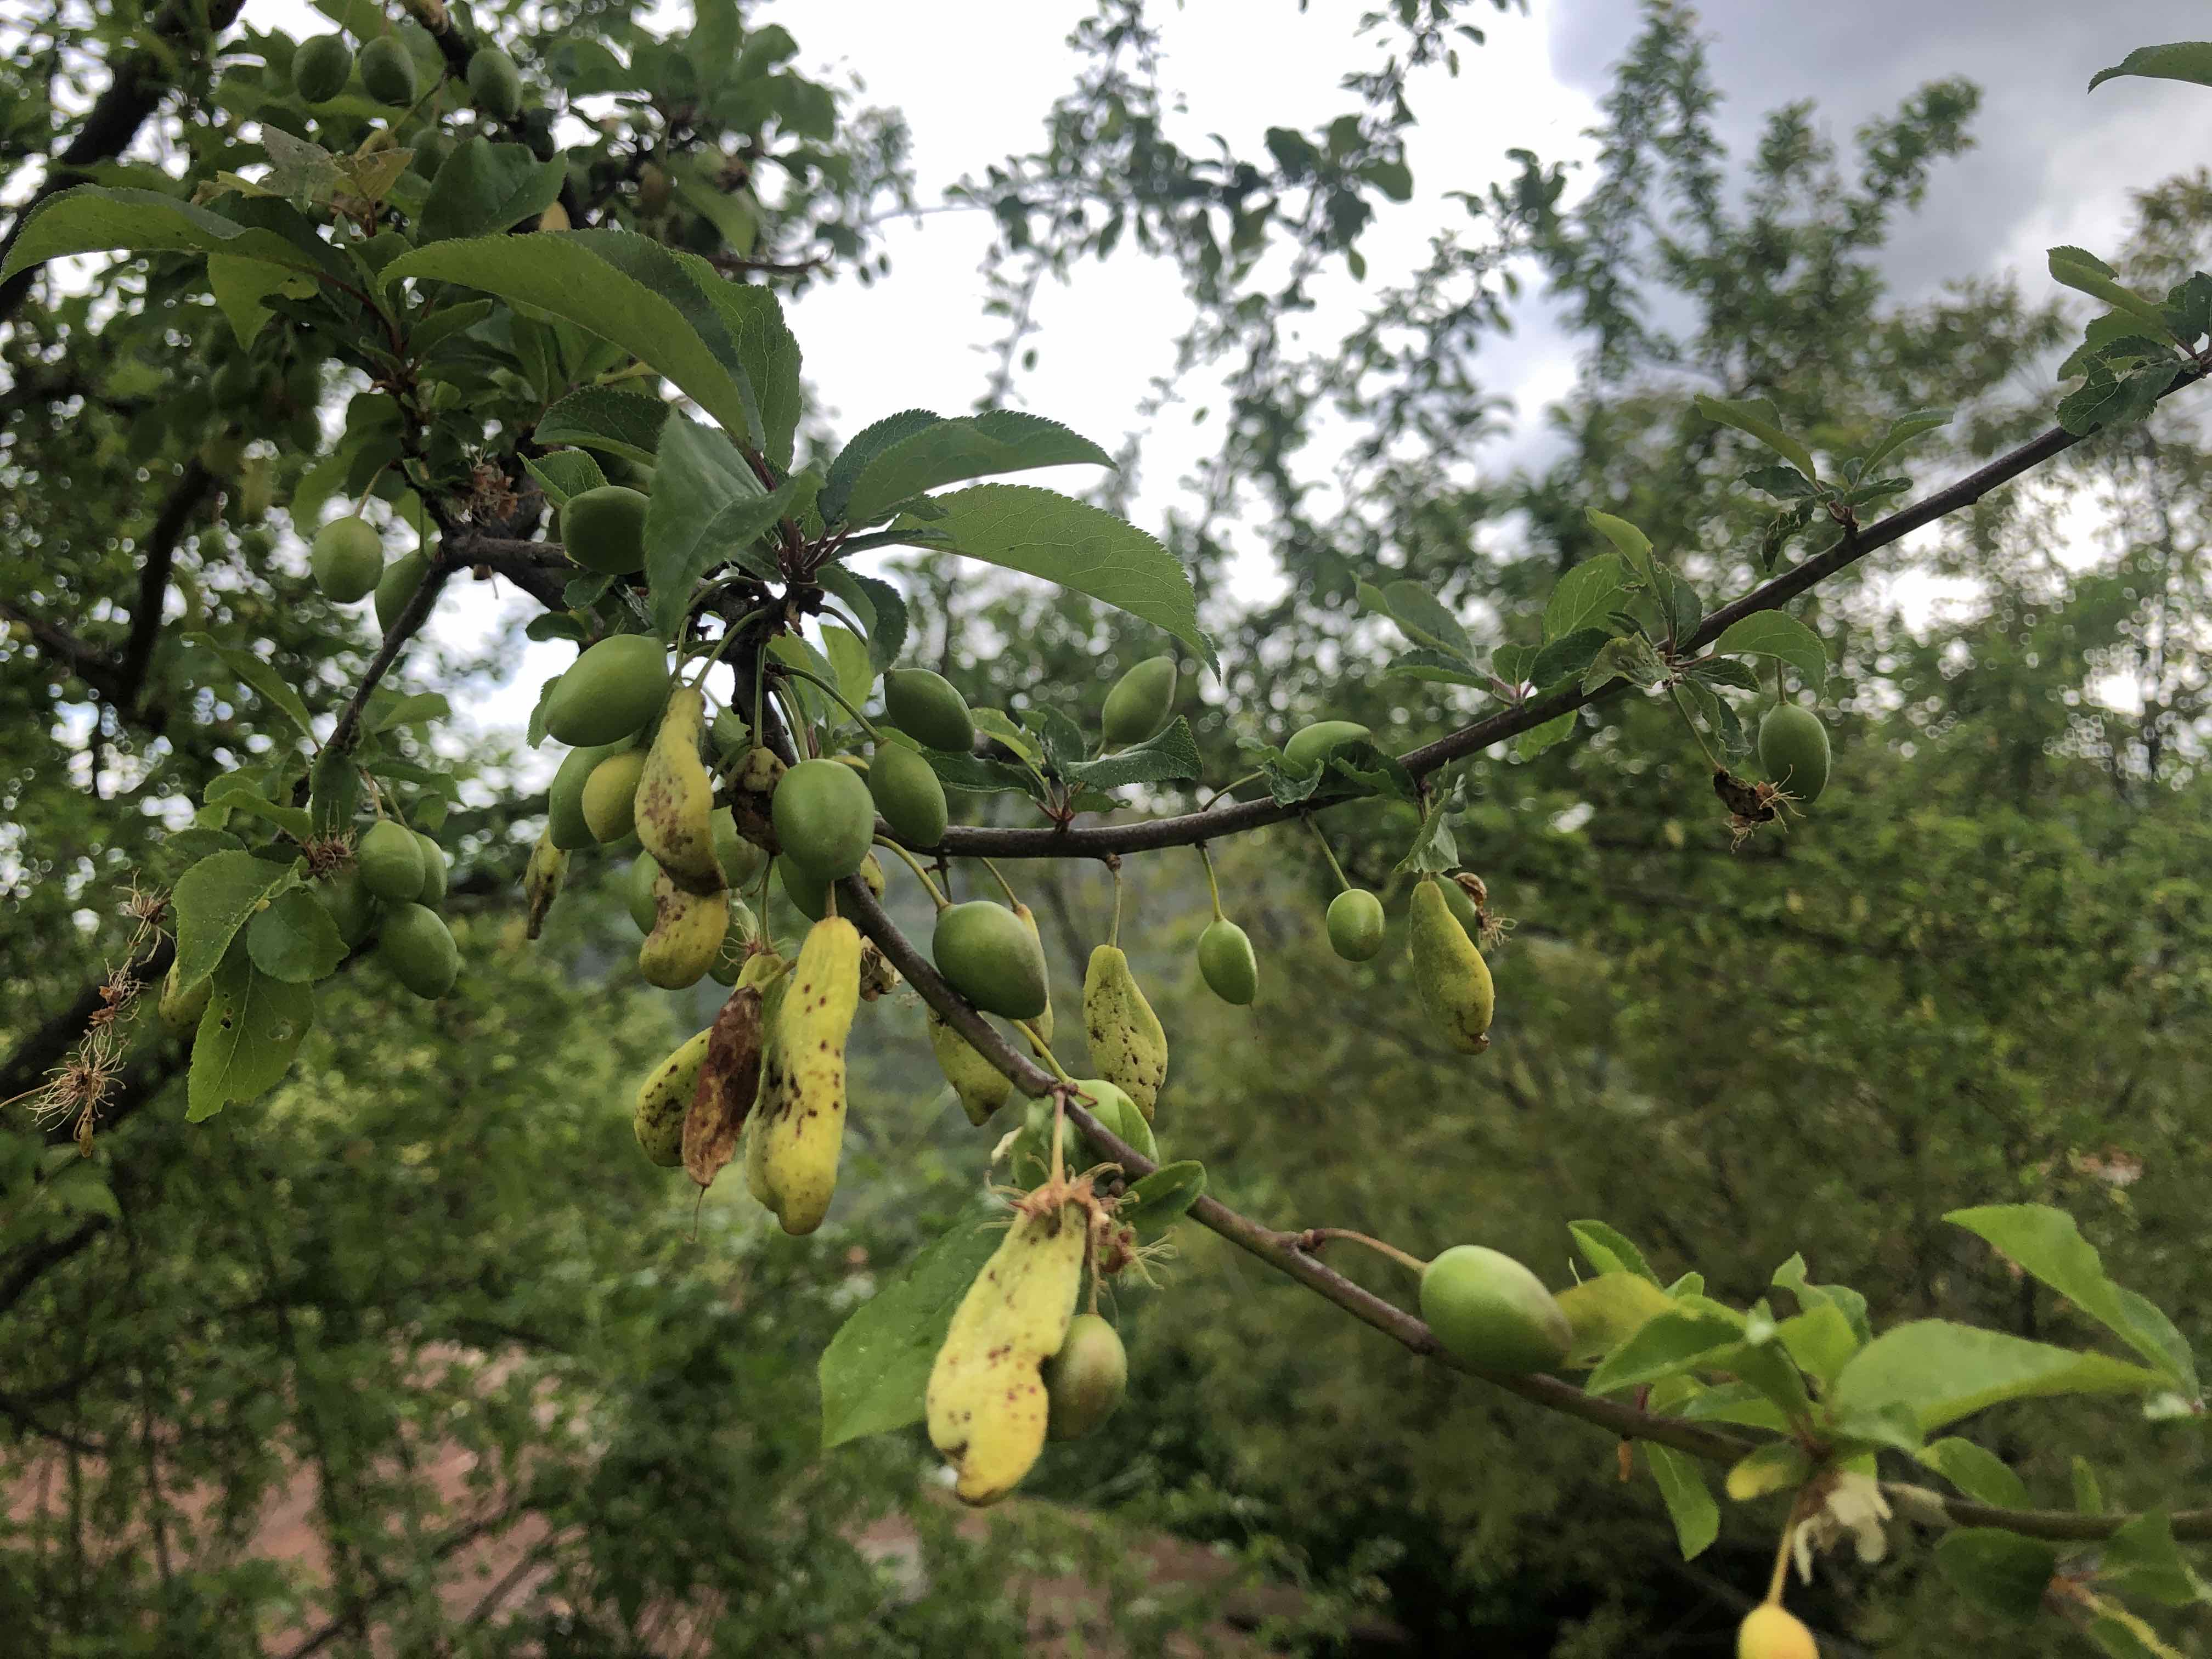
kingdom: Fungi
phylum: Ascomycota
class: Taphrinomycetes
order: Taphrinales
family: Taphrinaceae
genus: Taphrina
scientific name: Taphrina pruni
